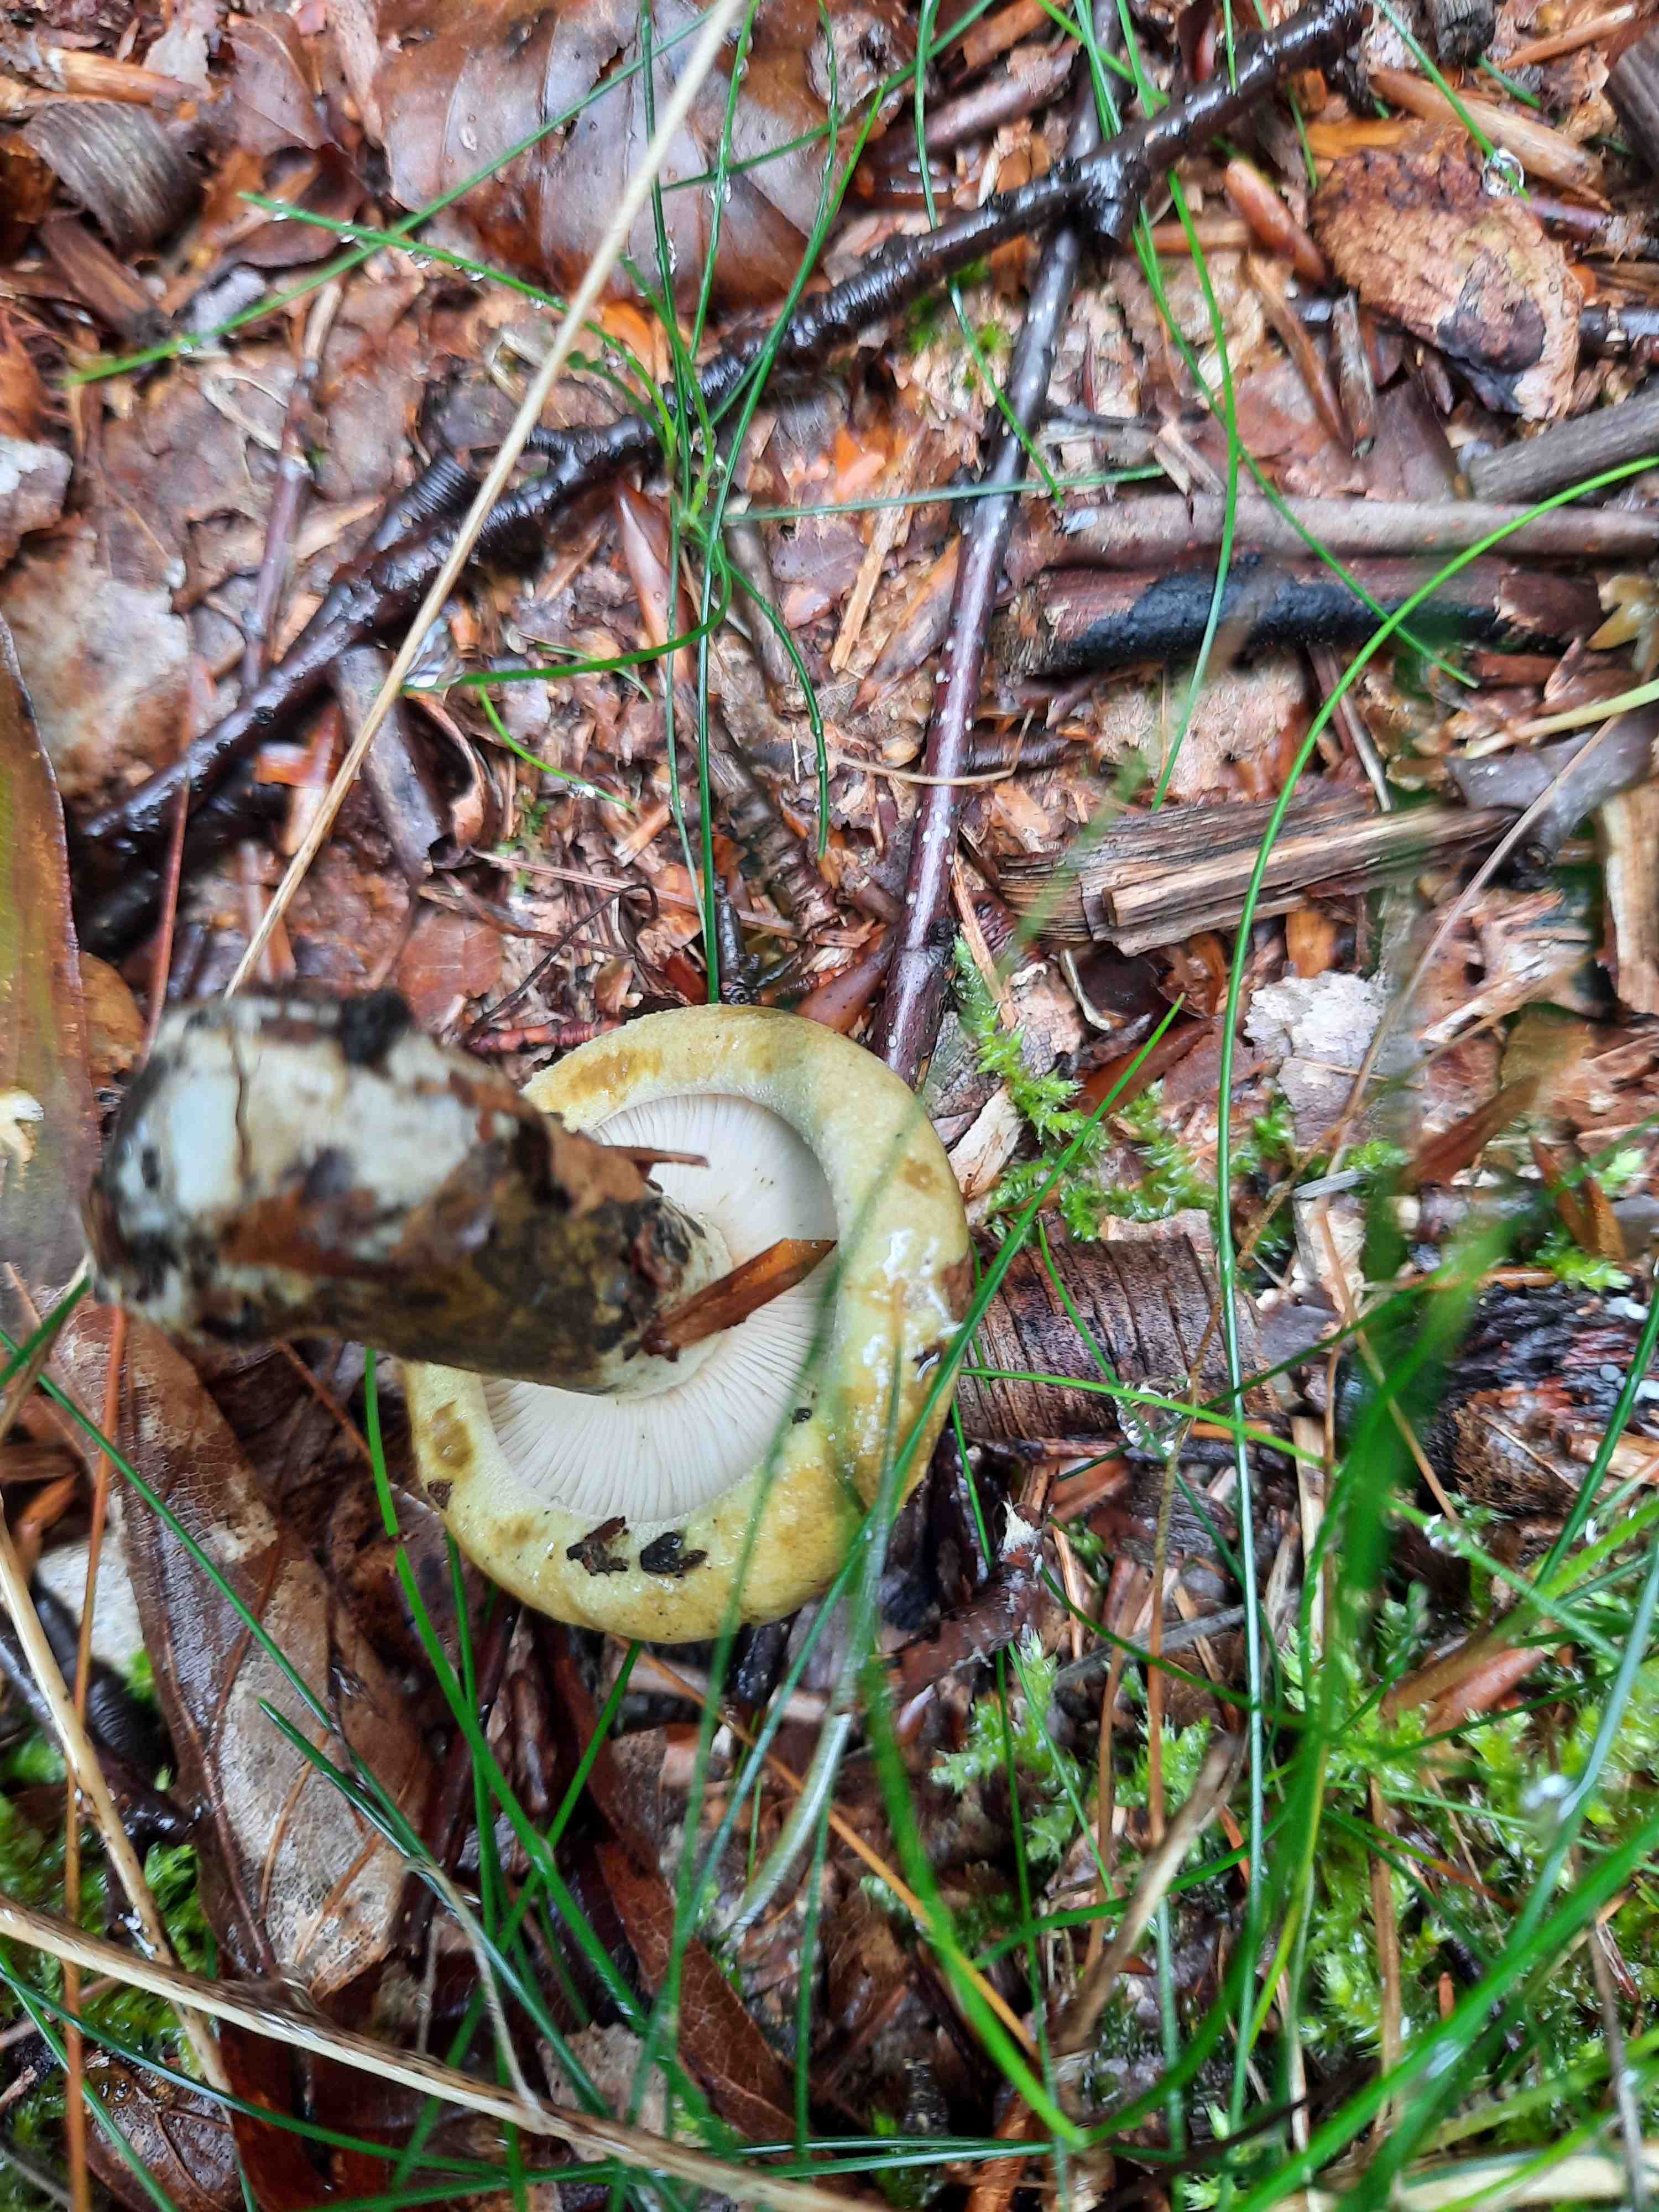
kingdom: Fungi
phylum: Basidiomycota
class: Agaricomycetes
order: Russulales
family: Russulaceae
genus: Lactarius
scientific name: Lactarius necator
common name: manddraber-mælkehat
